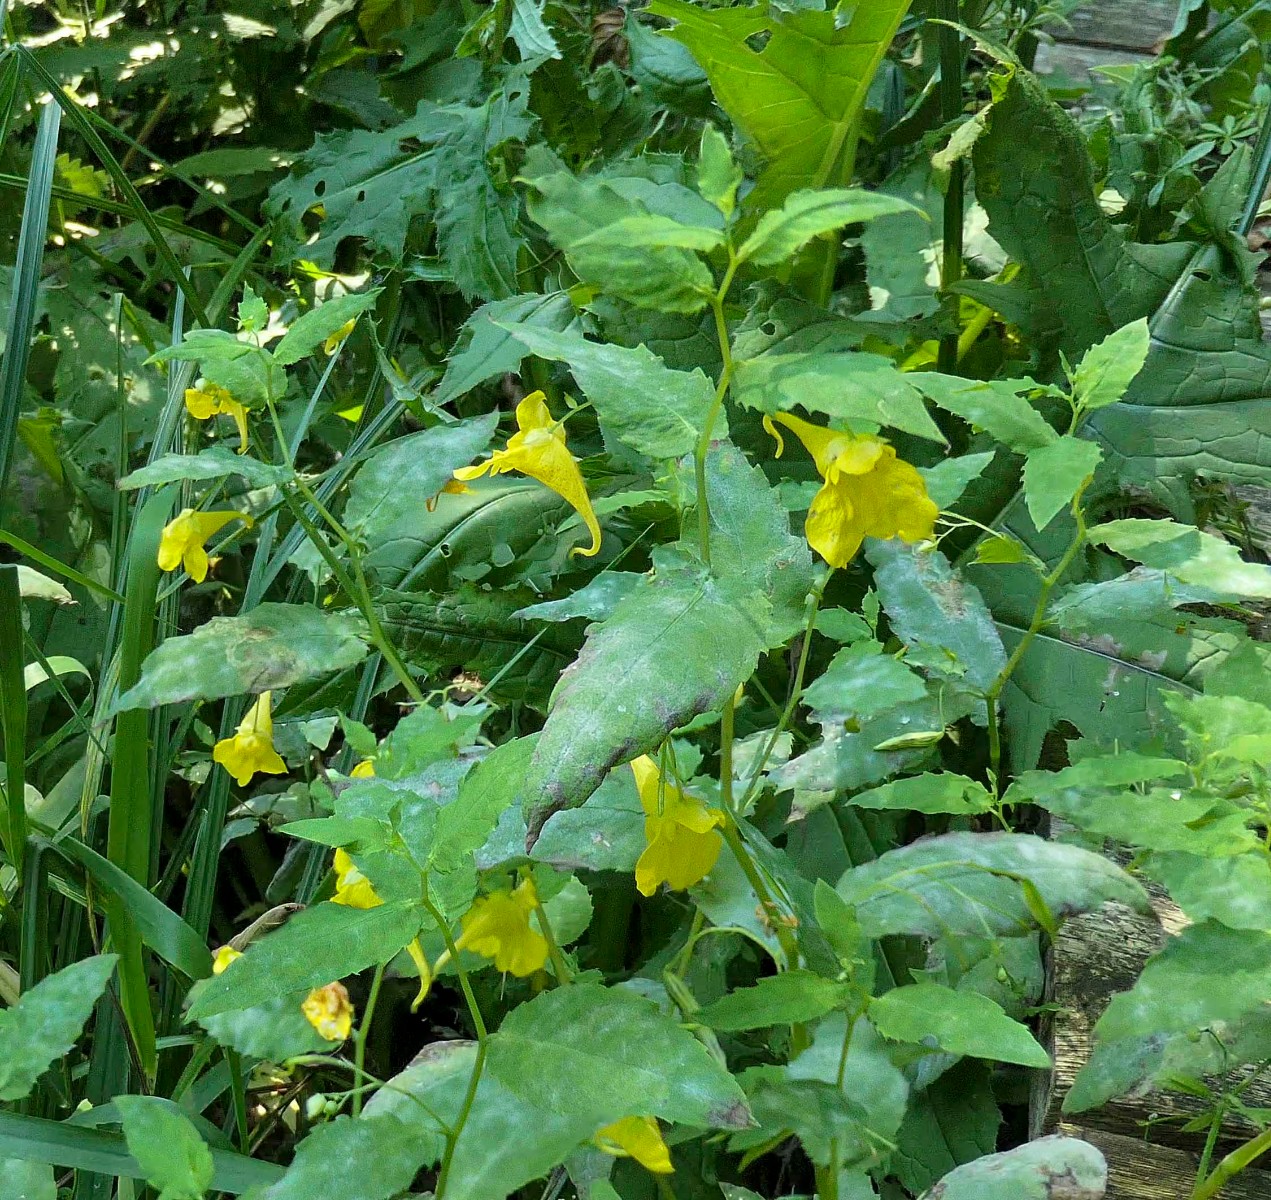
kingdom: Fungi
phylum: Ascomycota
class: Leotiomycetes
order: Helotiales
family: Erysiphaceae
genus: Podosphaera
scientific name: Podosphaera balsaminae
